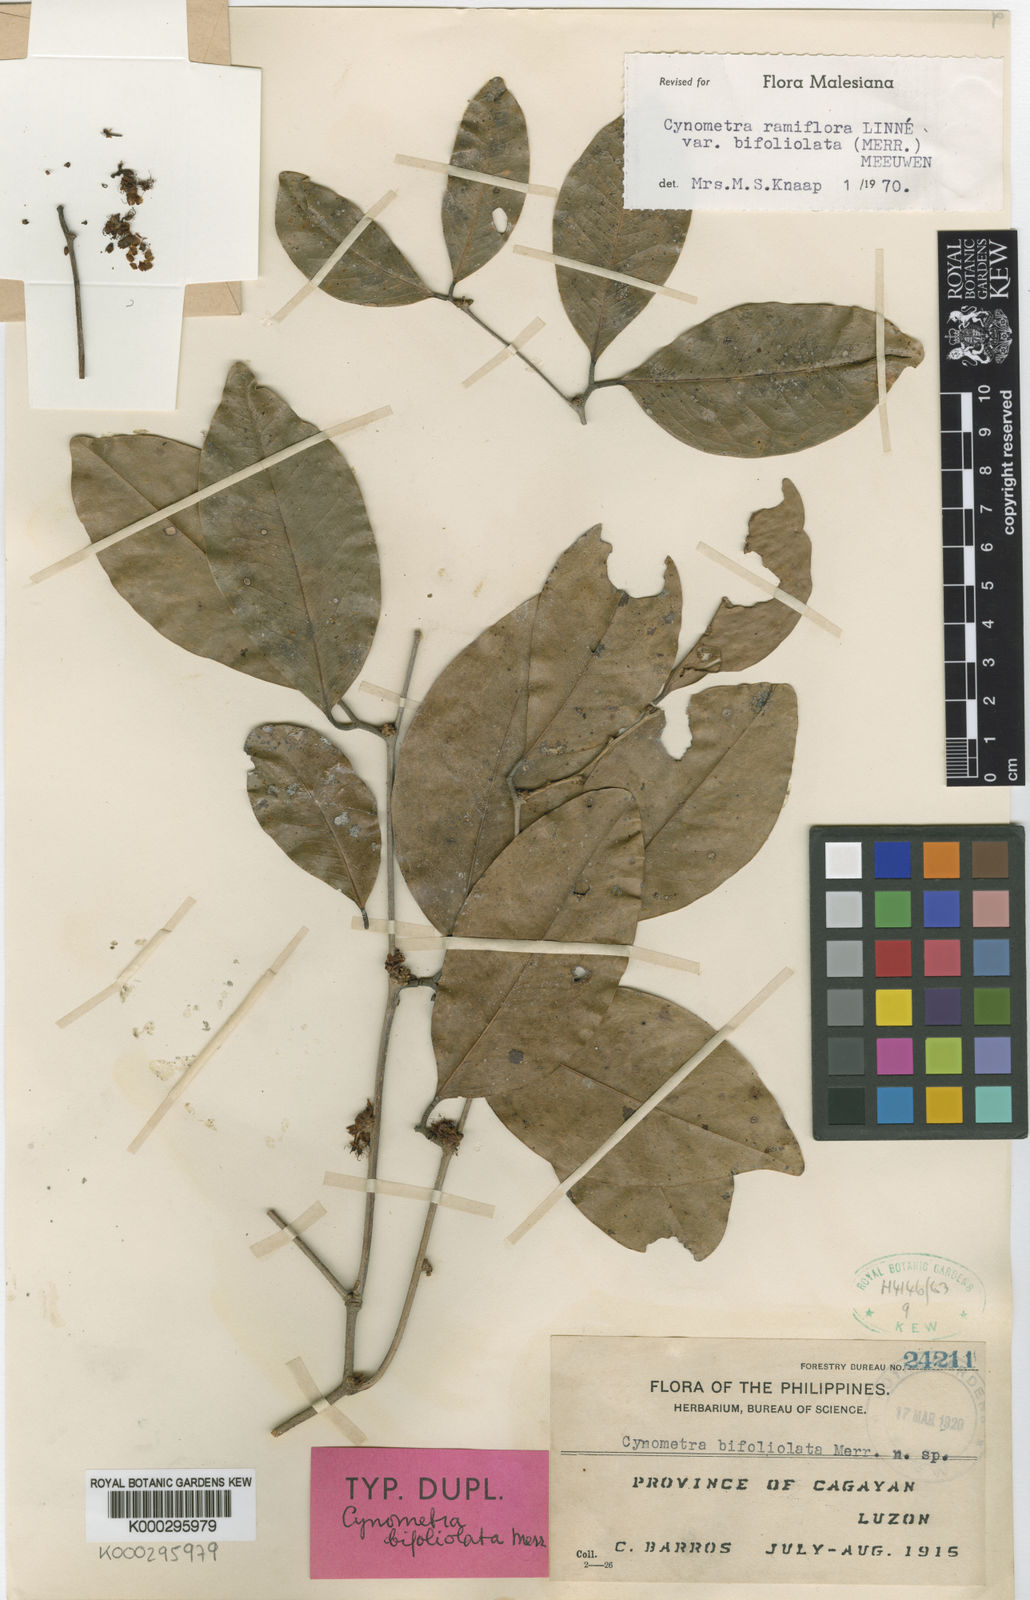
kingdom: Plantae
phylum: Tracheophyta
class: Magnoliopsida
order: Fabales
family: Fabaceae
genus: Cynometra
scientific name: Cynometra
